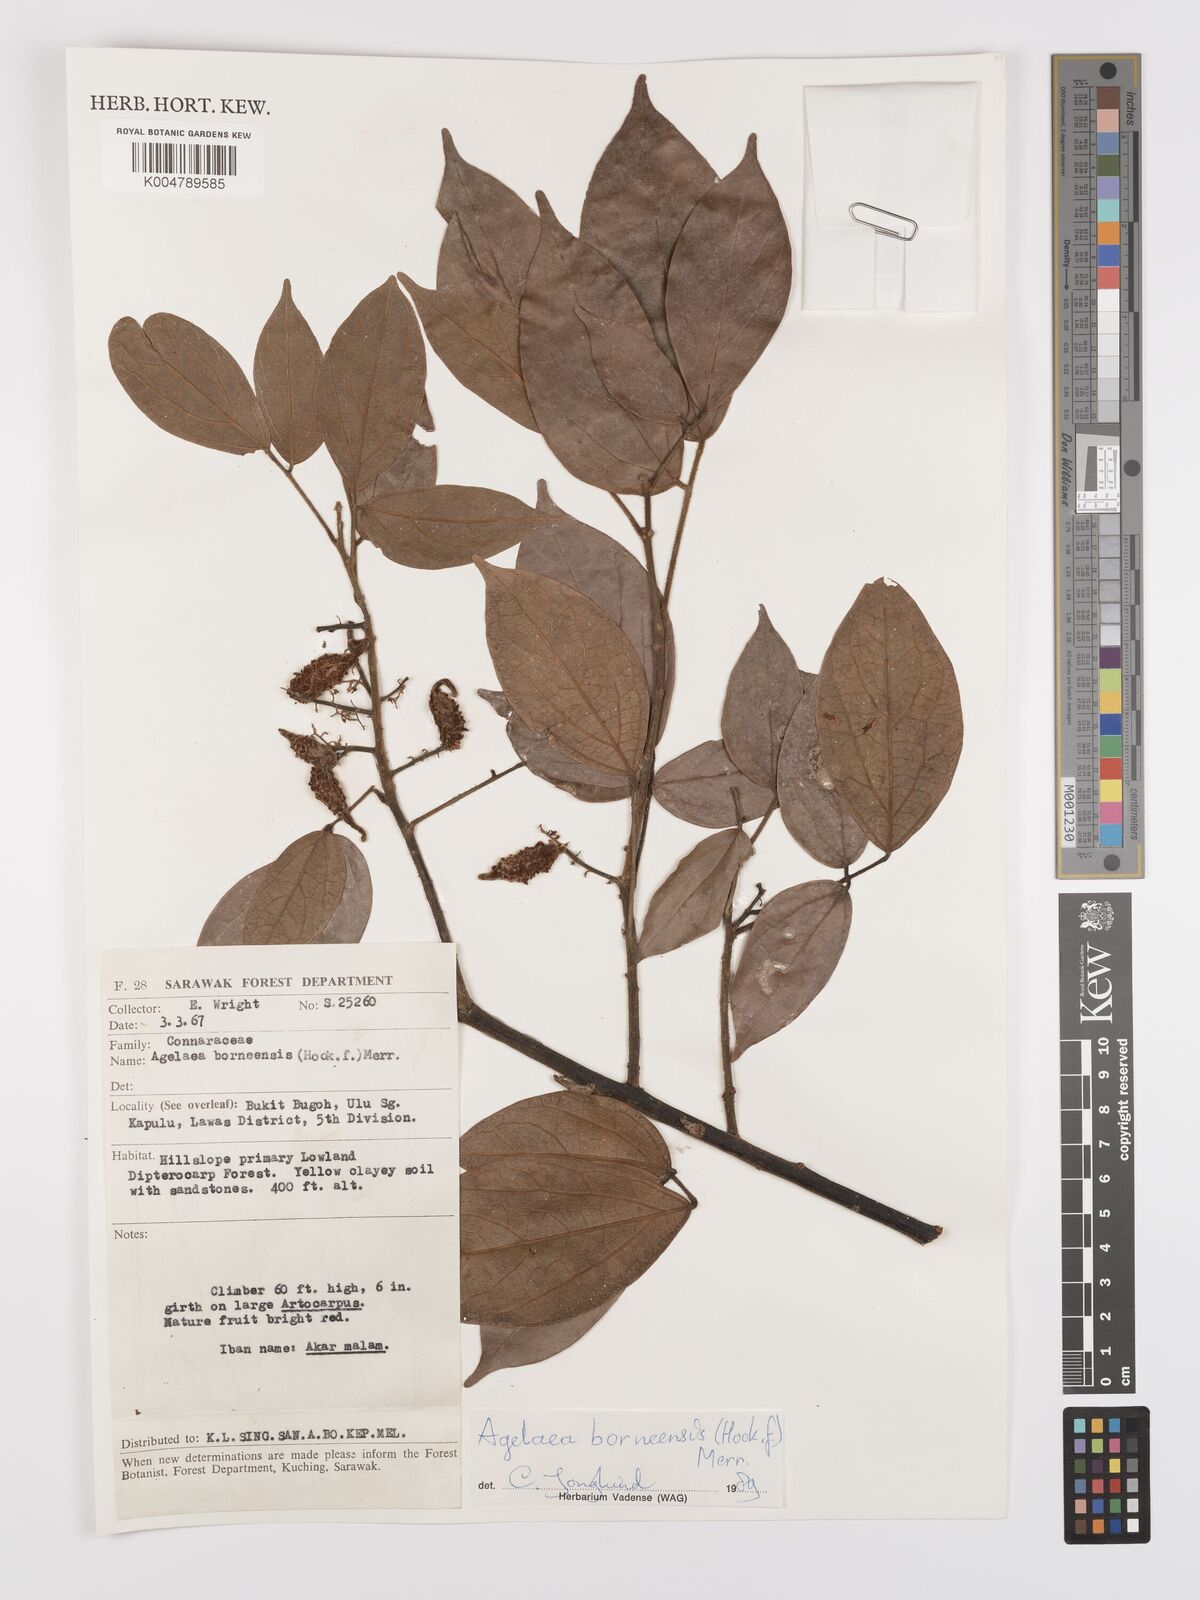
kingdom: Plantae
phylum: Tracheophyta
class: Magnoliopsida
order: Oxalidales
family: Connaraceae
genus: Agelaea
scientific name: Agelaea borneensis
